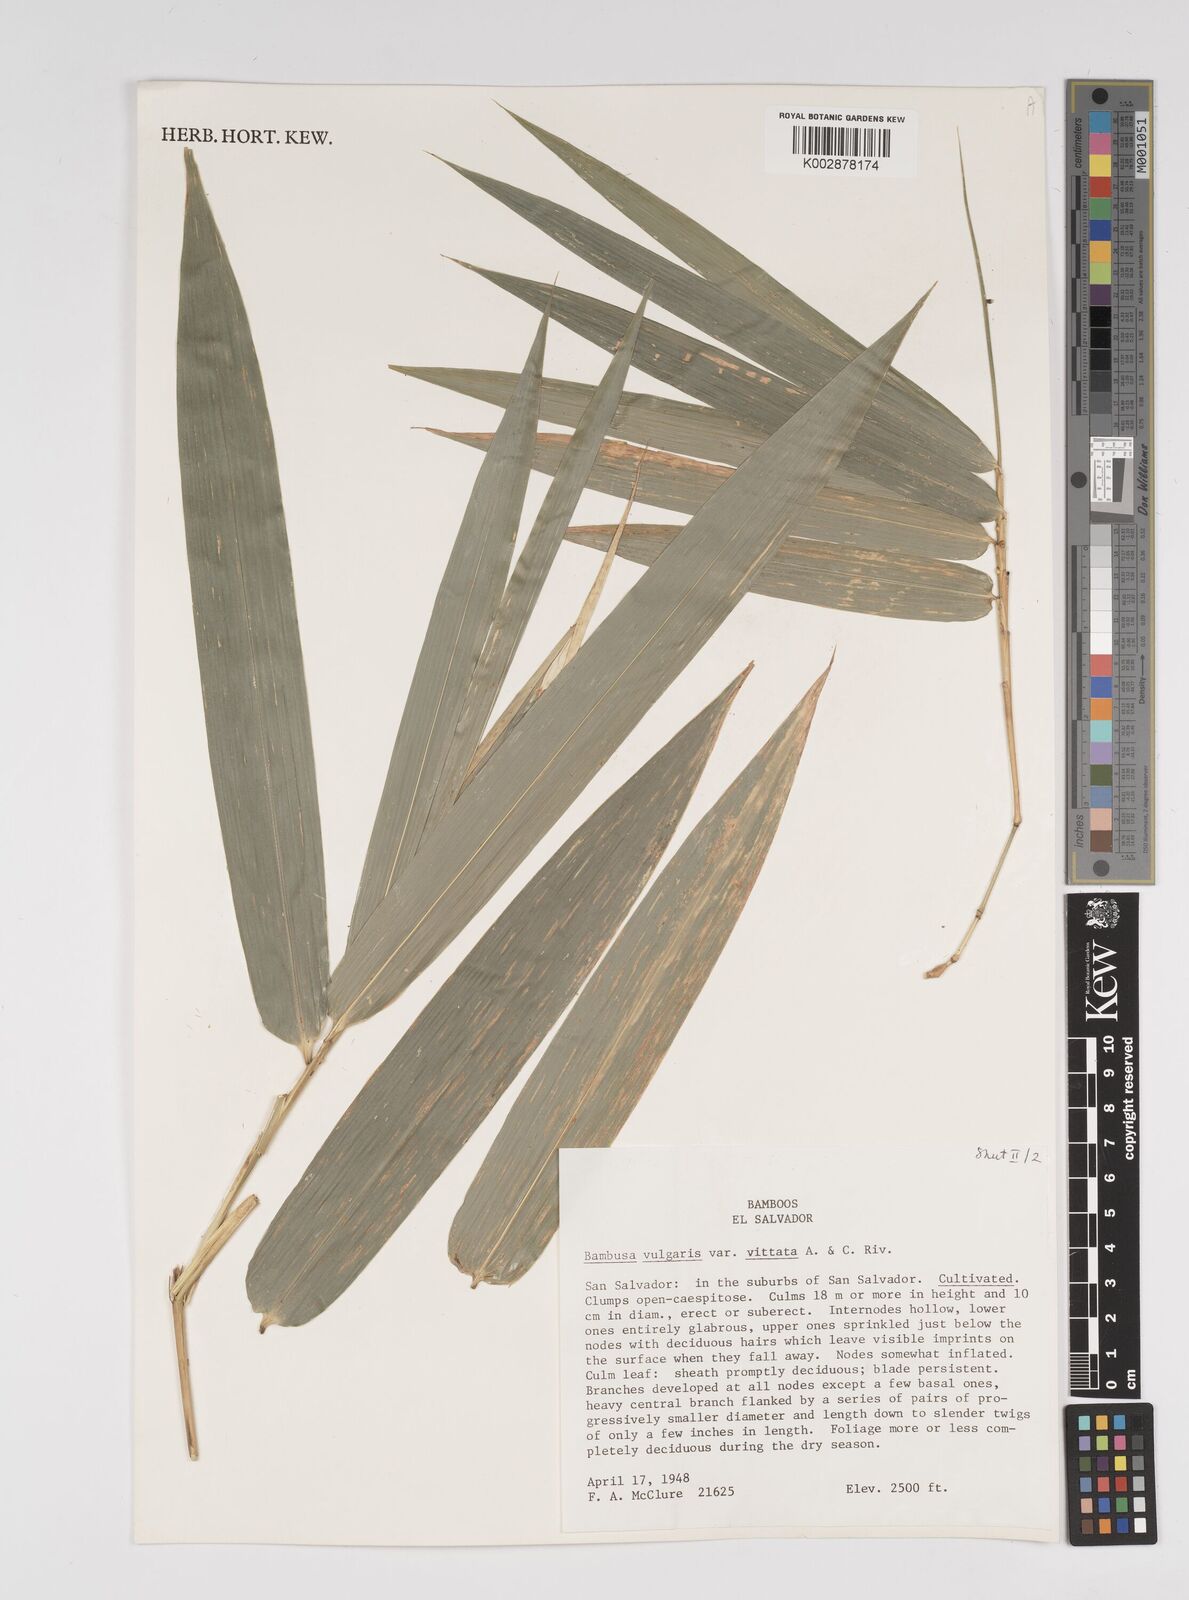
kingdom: Plantae
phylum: Tracheophyta
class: Liliopsida
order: Poales
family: Poaceae
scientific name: Poaceae
